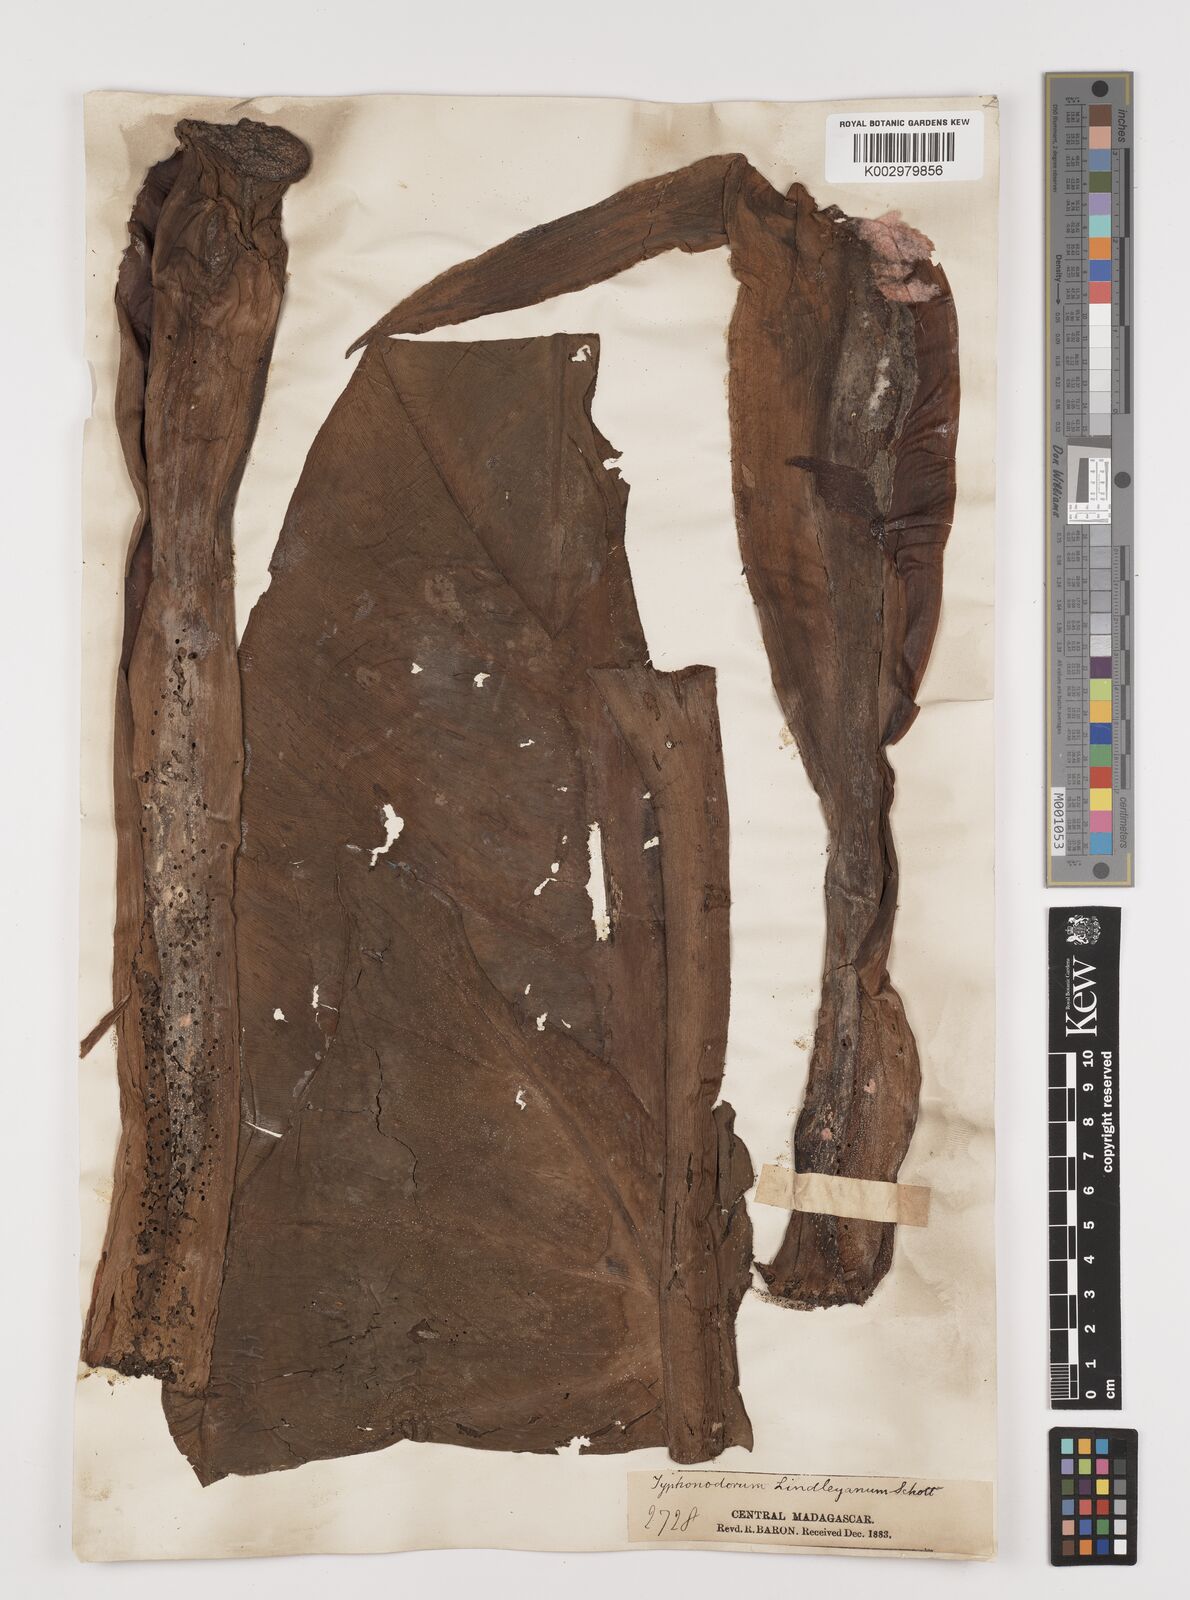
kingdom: Plantae
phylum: Tracheophyta
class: Liliopsida
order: Alismatales
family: Araceae
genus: Typhonodorum
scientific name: Typhonodorum lindleyanum
